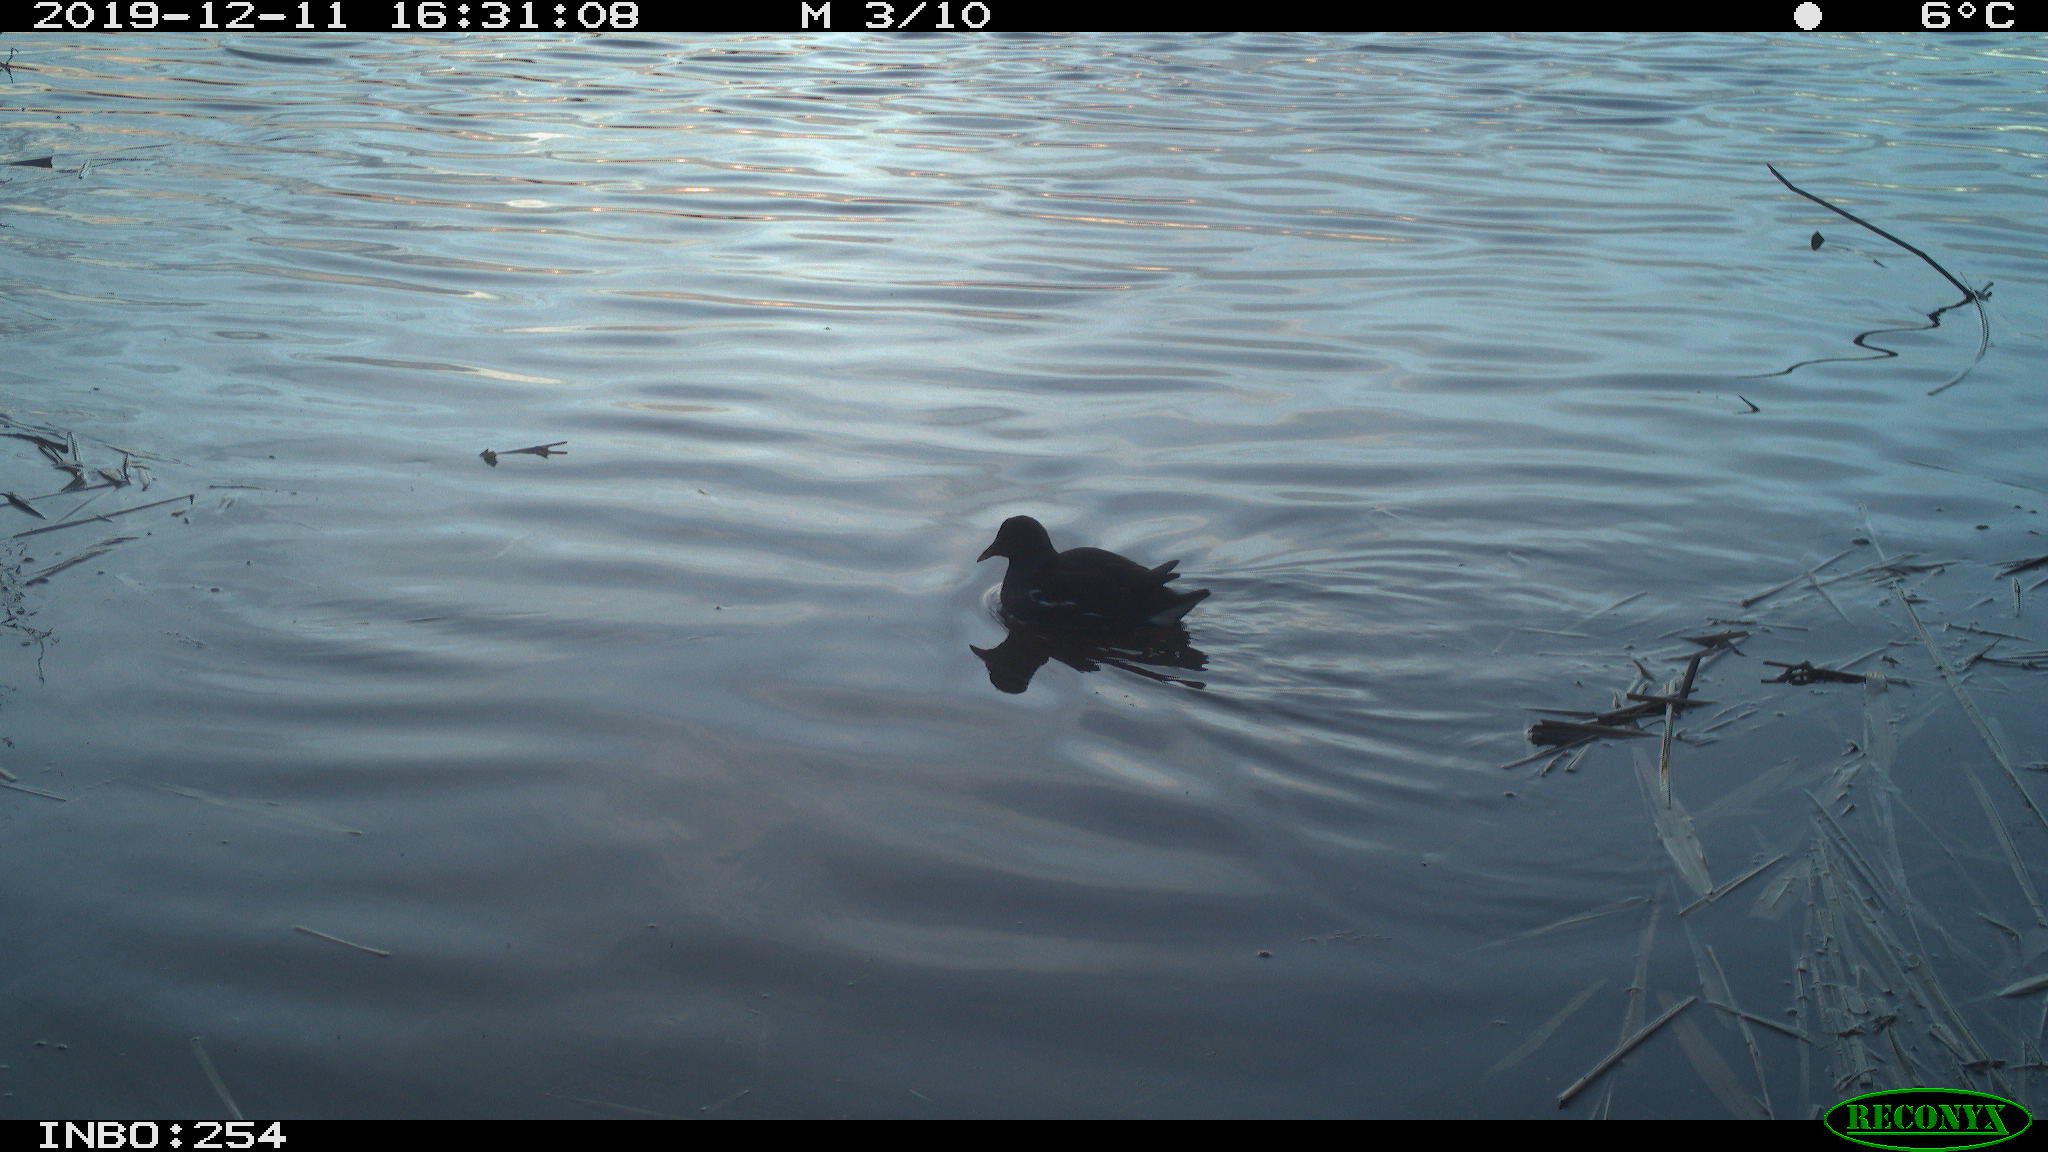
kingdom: Animalia
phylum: Chordata
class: Aves
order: Gruiformes
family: Rallidae
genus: Gallinula
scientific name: Gallinula chloropus
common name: Common moorhen
